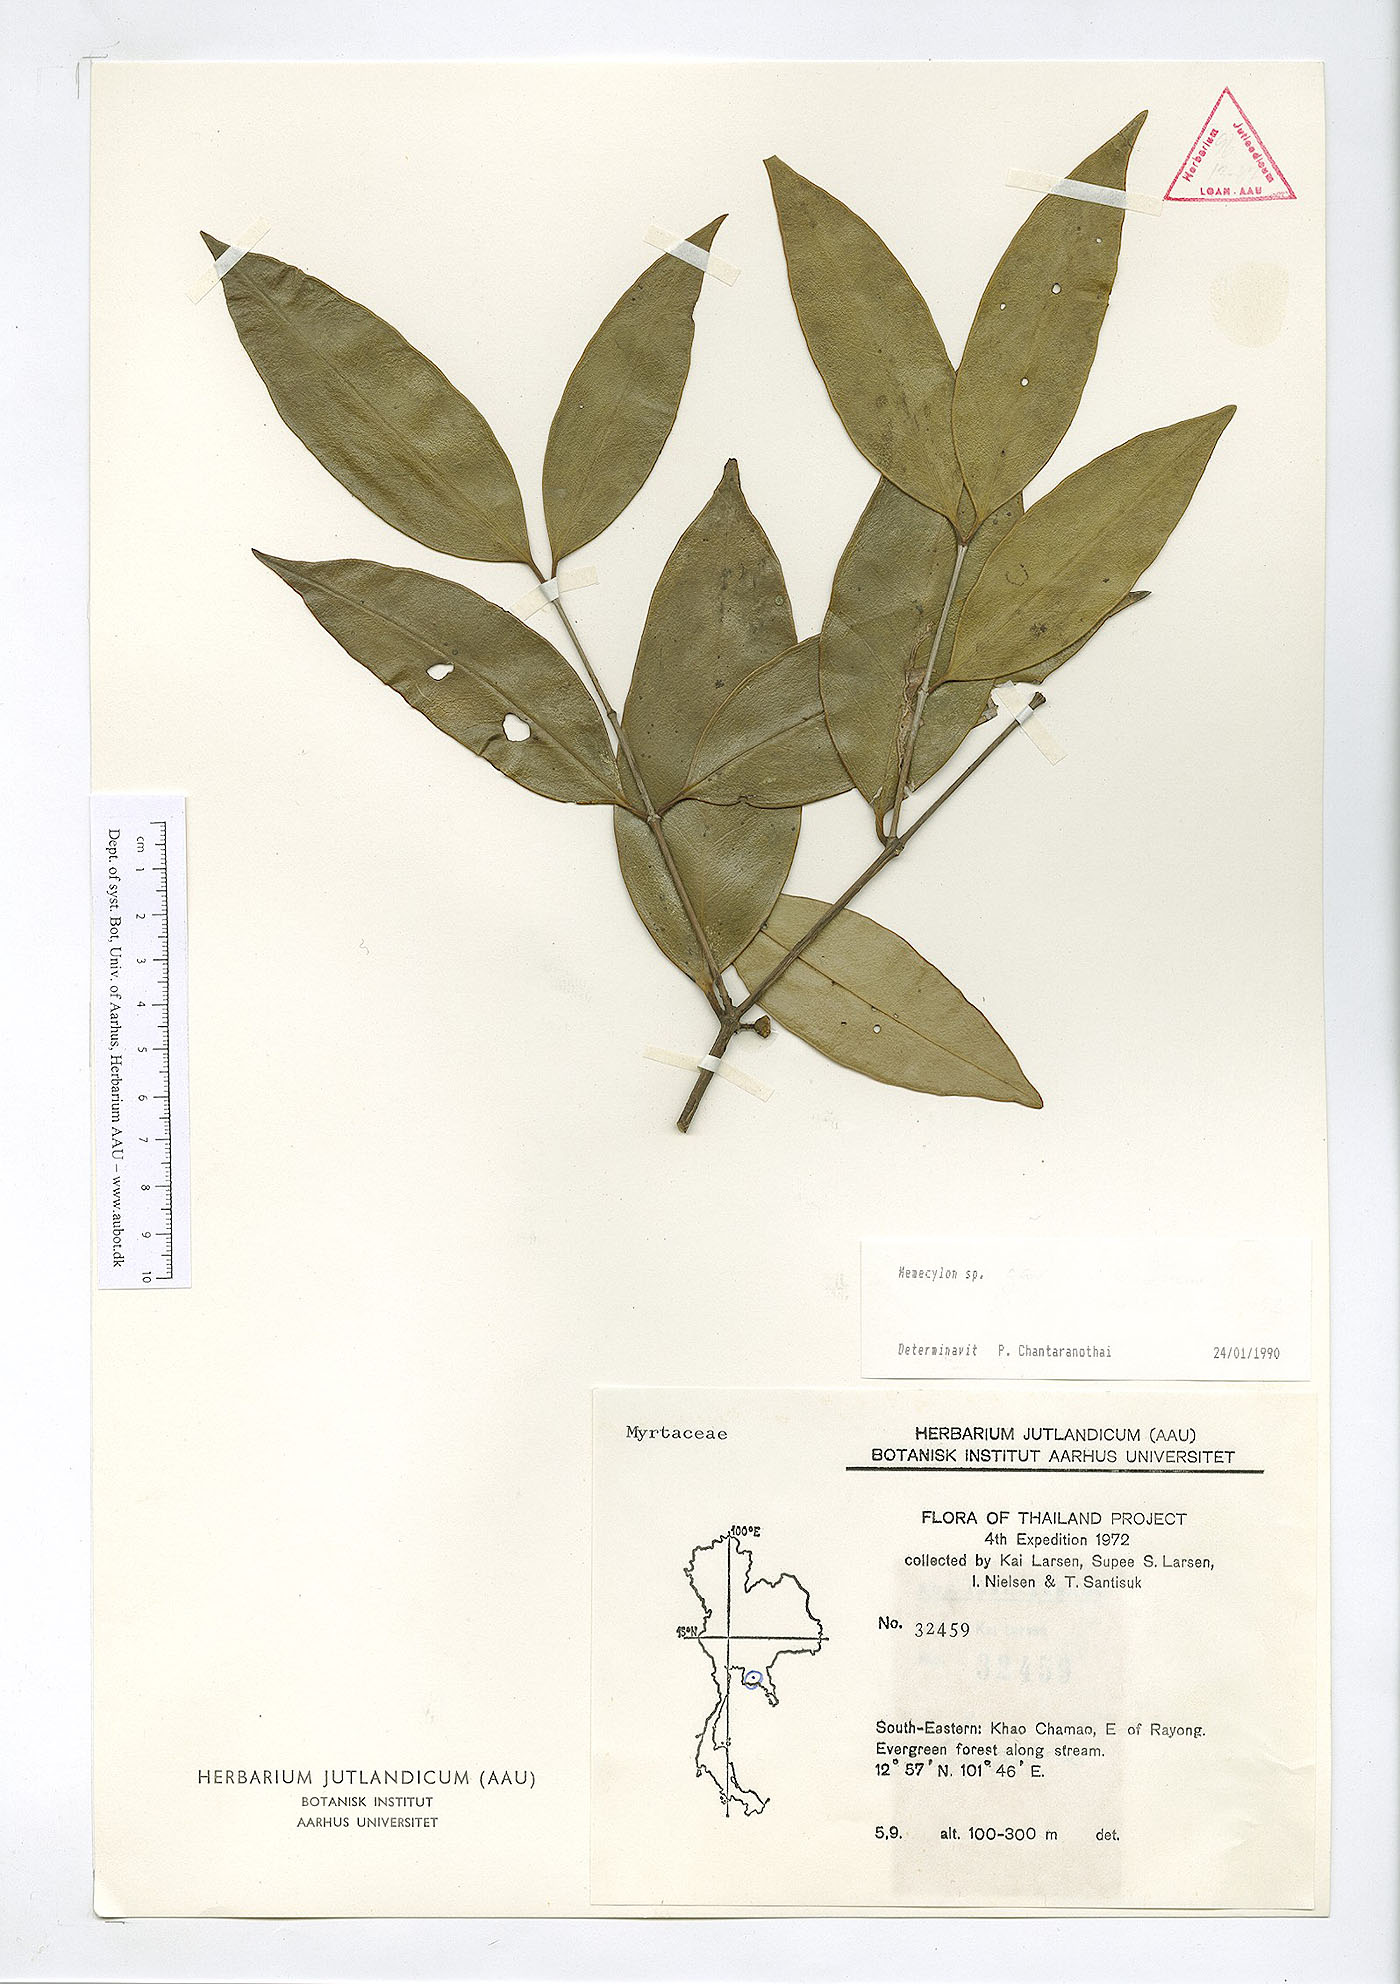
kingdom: Plantae
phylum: Tracheophyta
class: Magnoliopsida
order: Myrtales
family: Melastomataceae
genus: Memecylon
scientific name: Memecylon caeruleum
